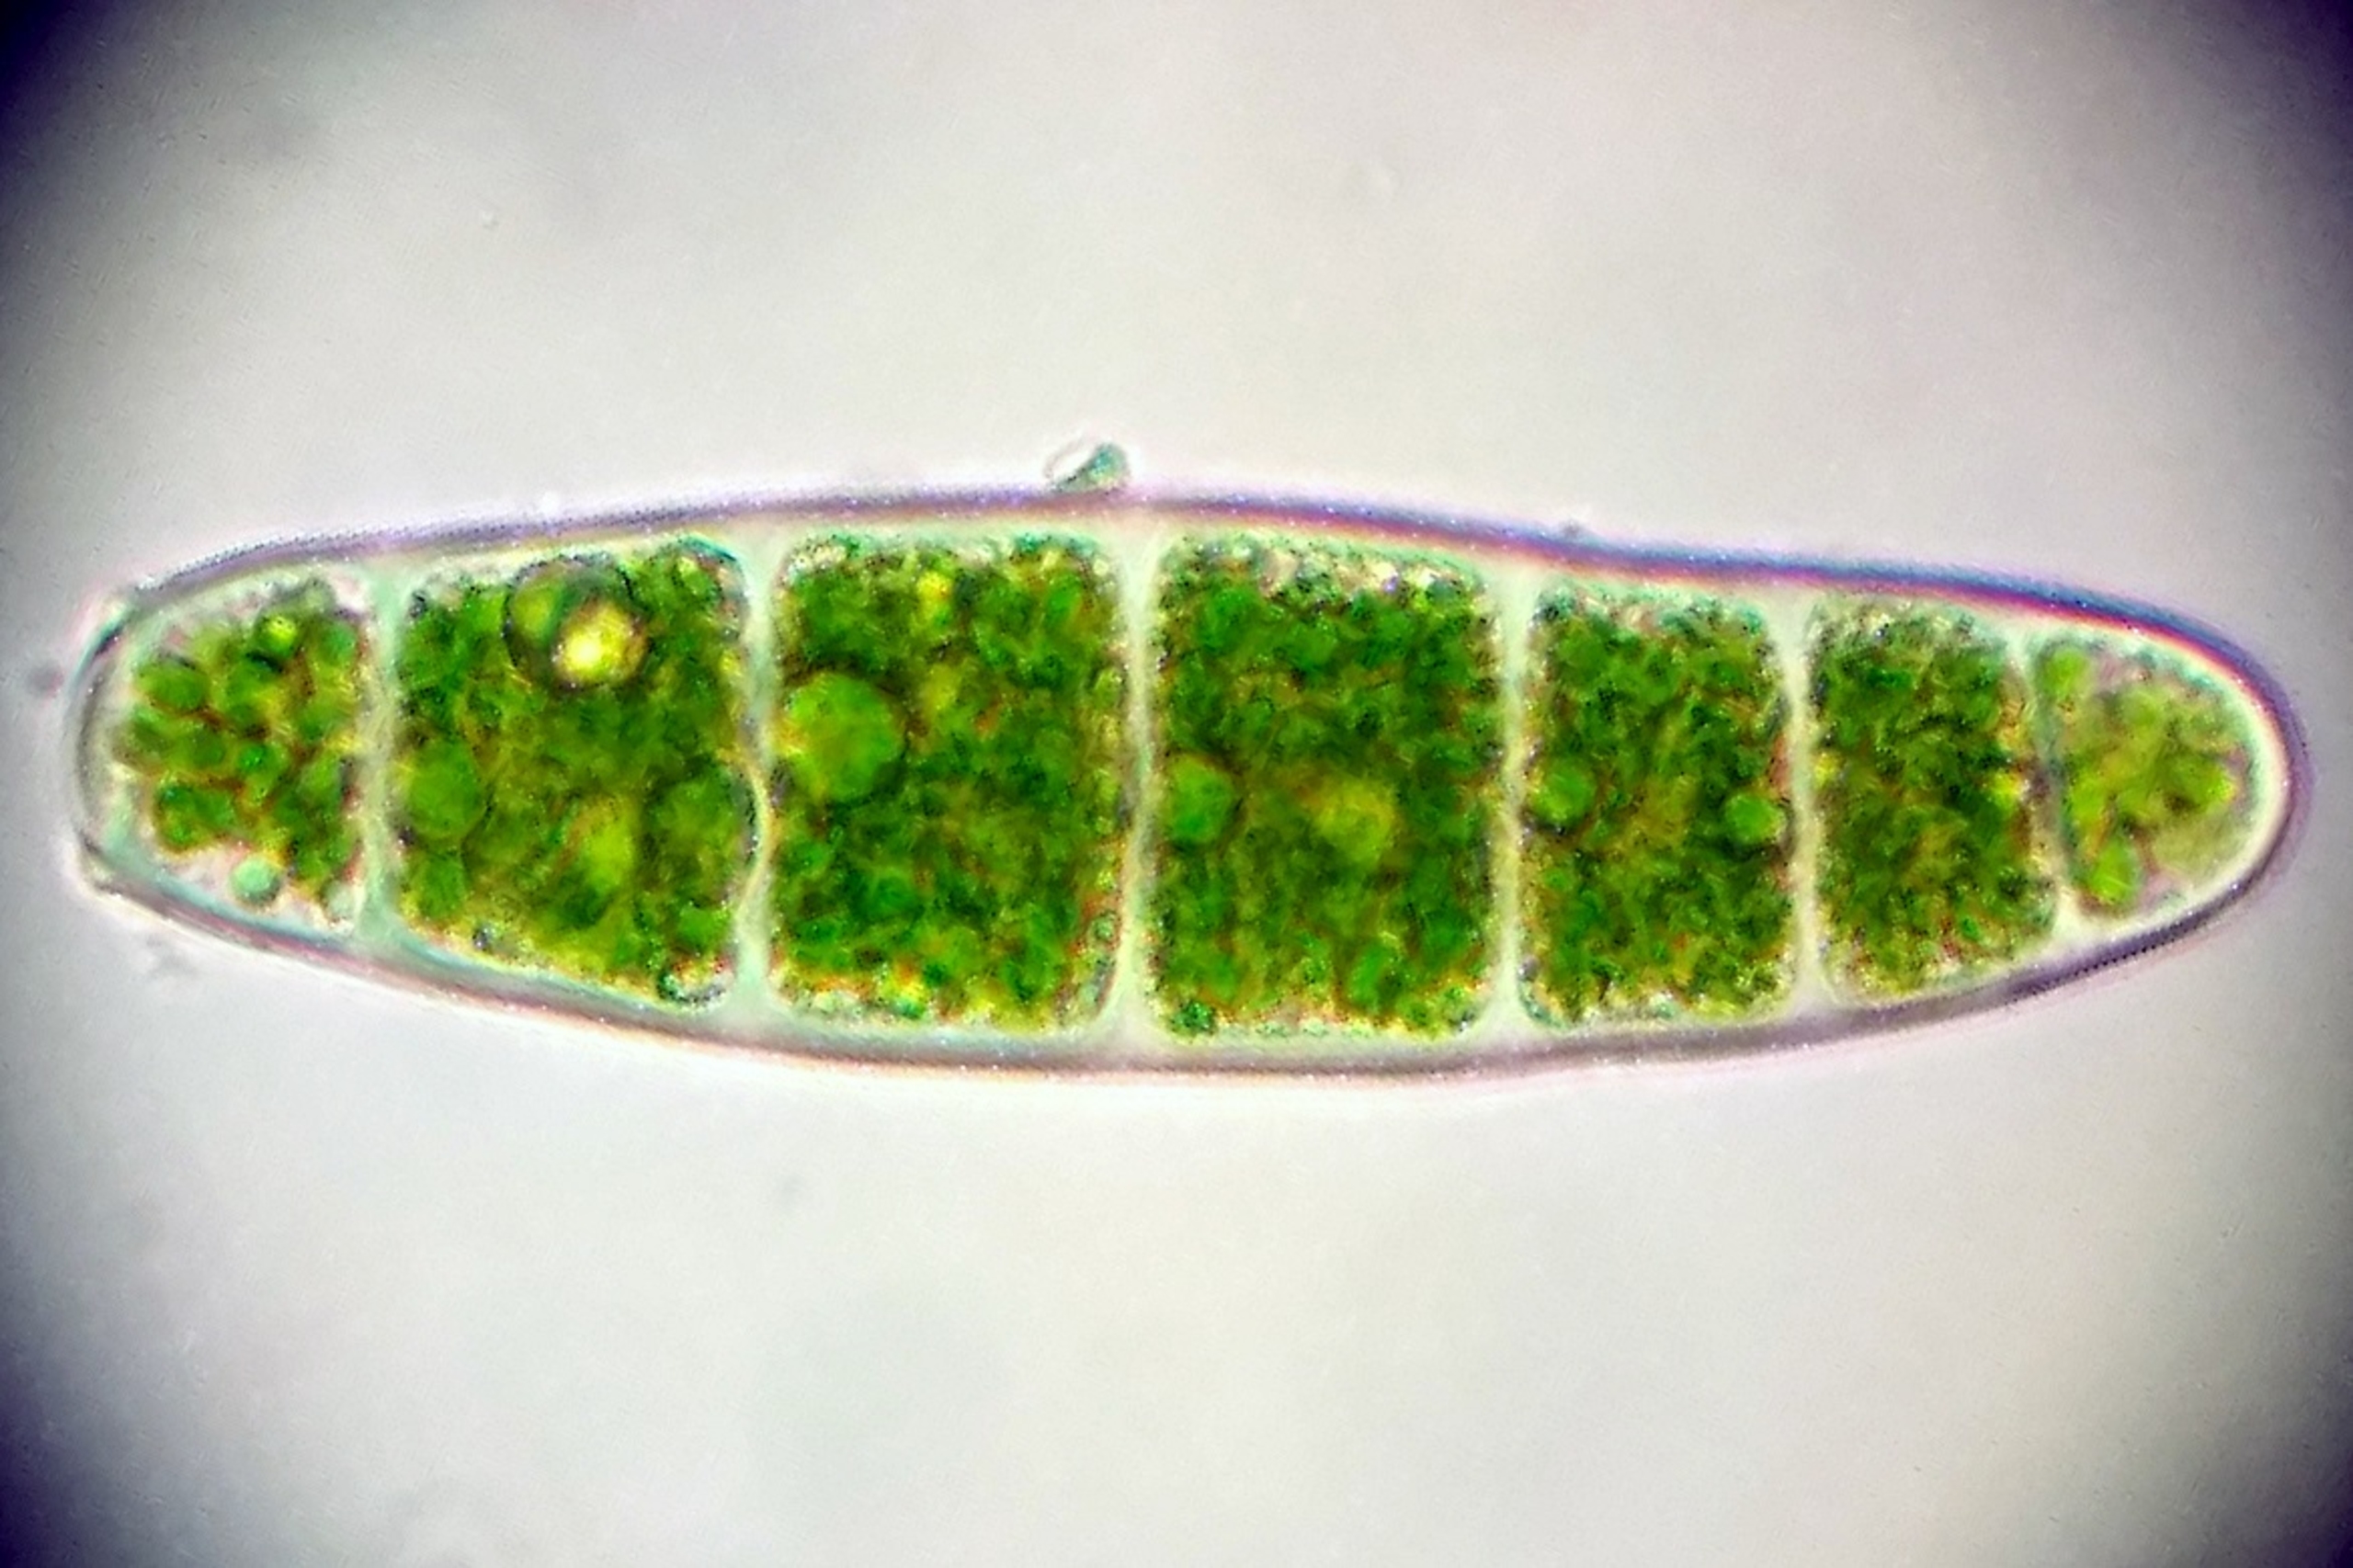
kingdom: Plantae
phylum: Bryophyta
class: Bryopsida
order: Orthotrichales
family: Orthotrichaceae
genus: Zygodon
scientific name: Zygodon conoideus
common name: Tand-køllemos
